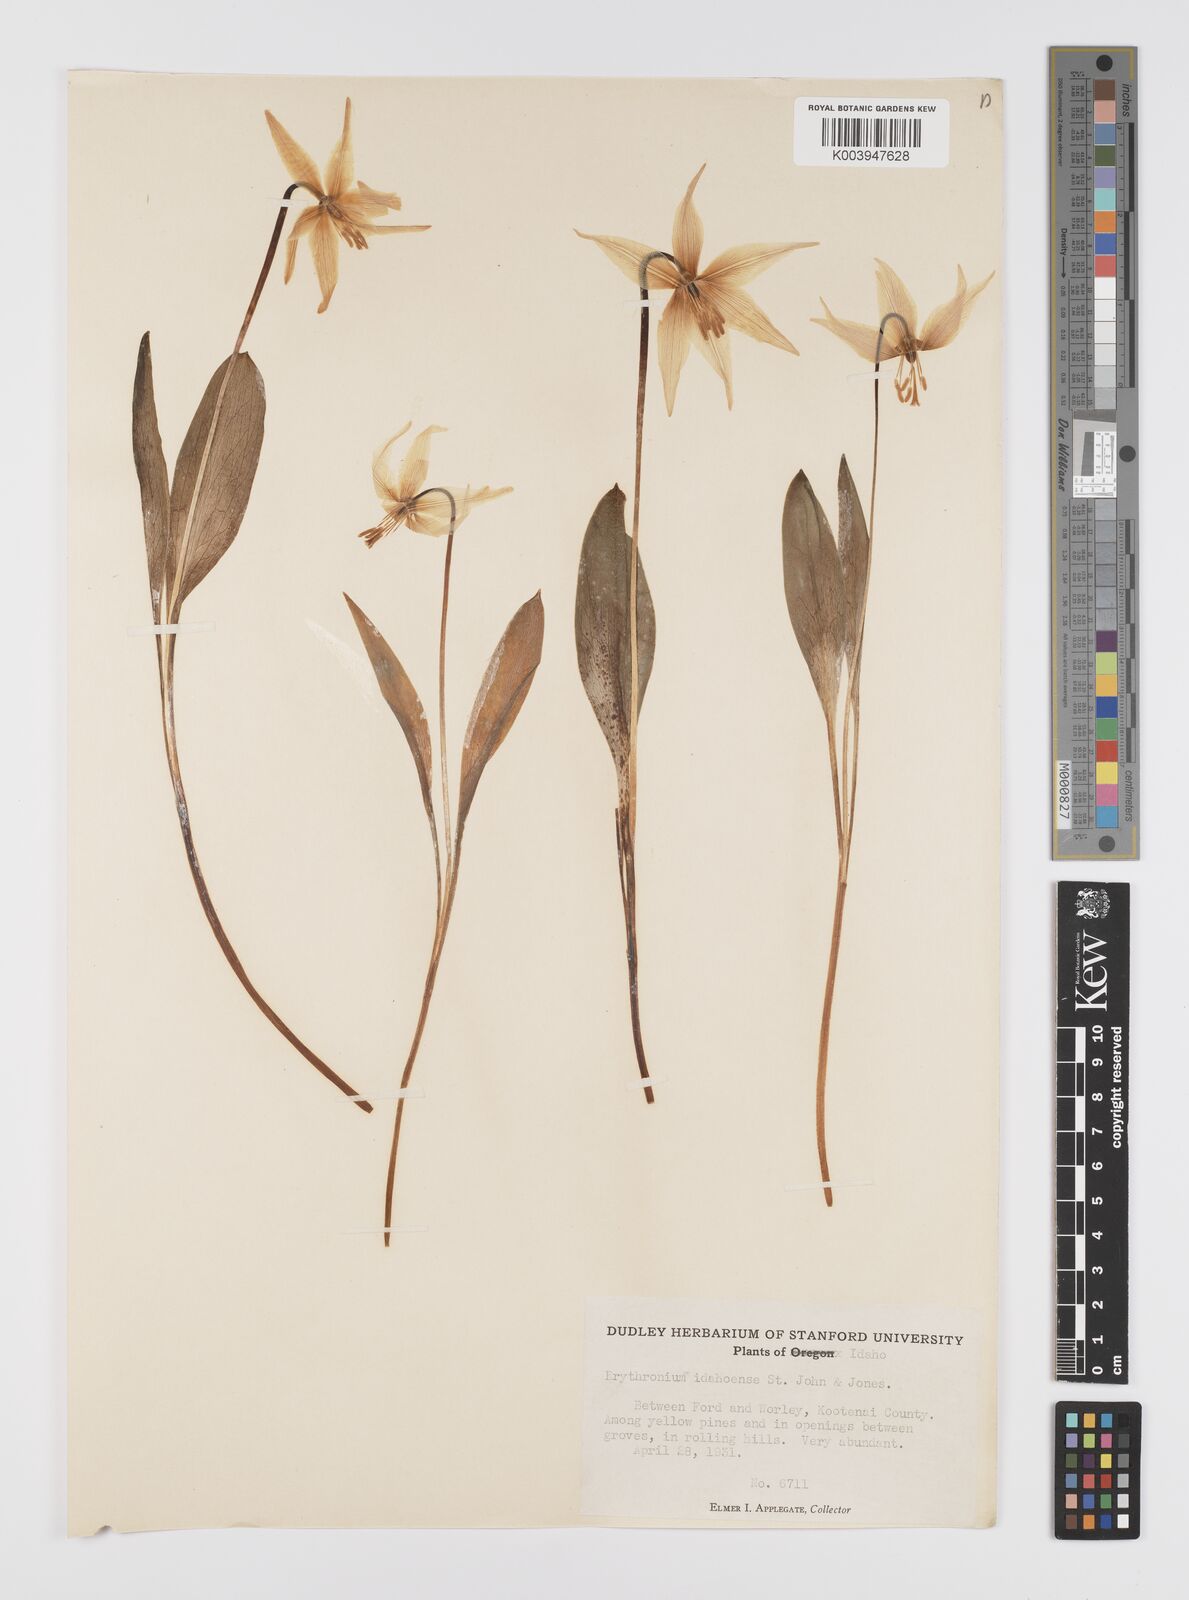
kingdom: Plantae
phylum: Tracheophyta
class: Liliopsida
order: Liliales
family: Liliaceae
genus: Erythronium
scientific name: Erythronium idahoense
